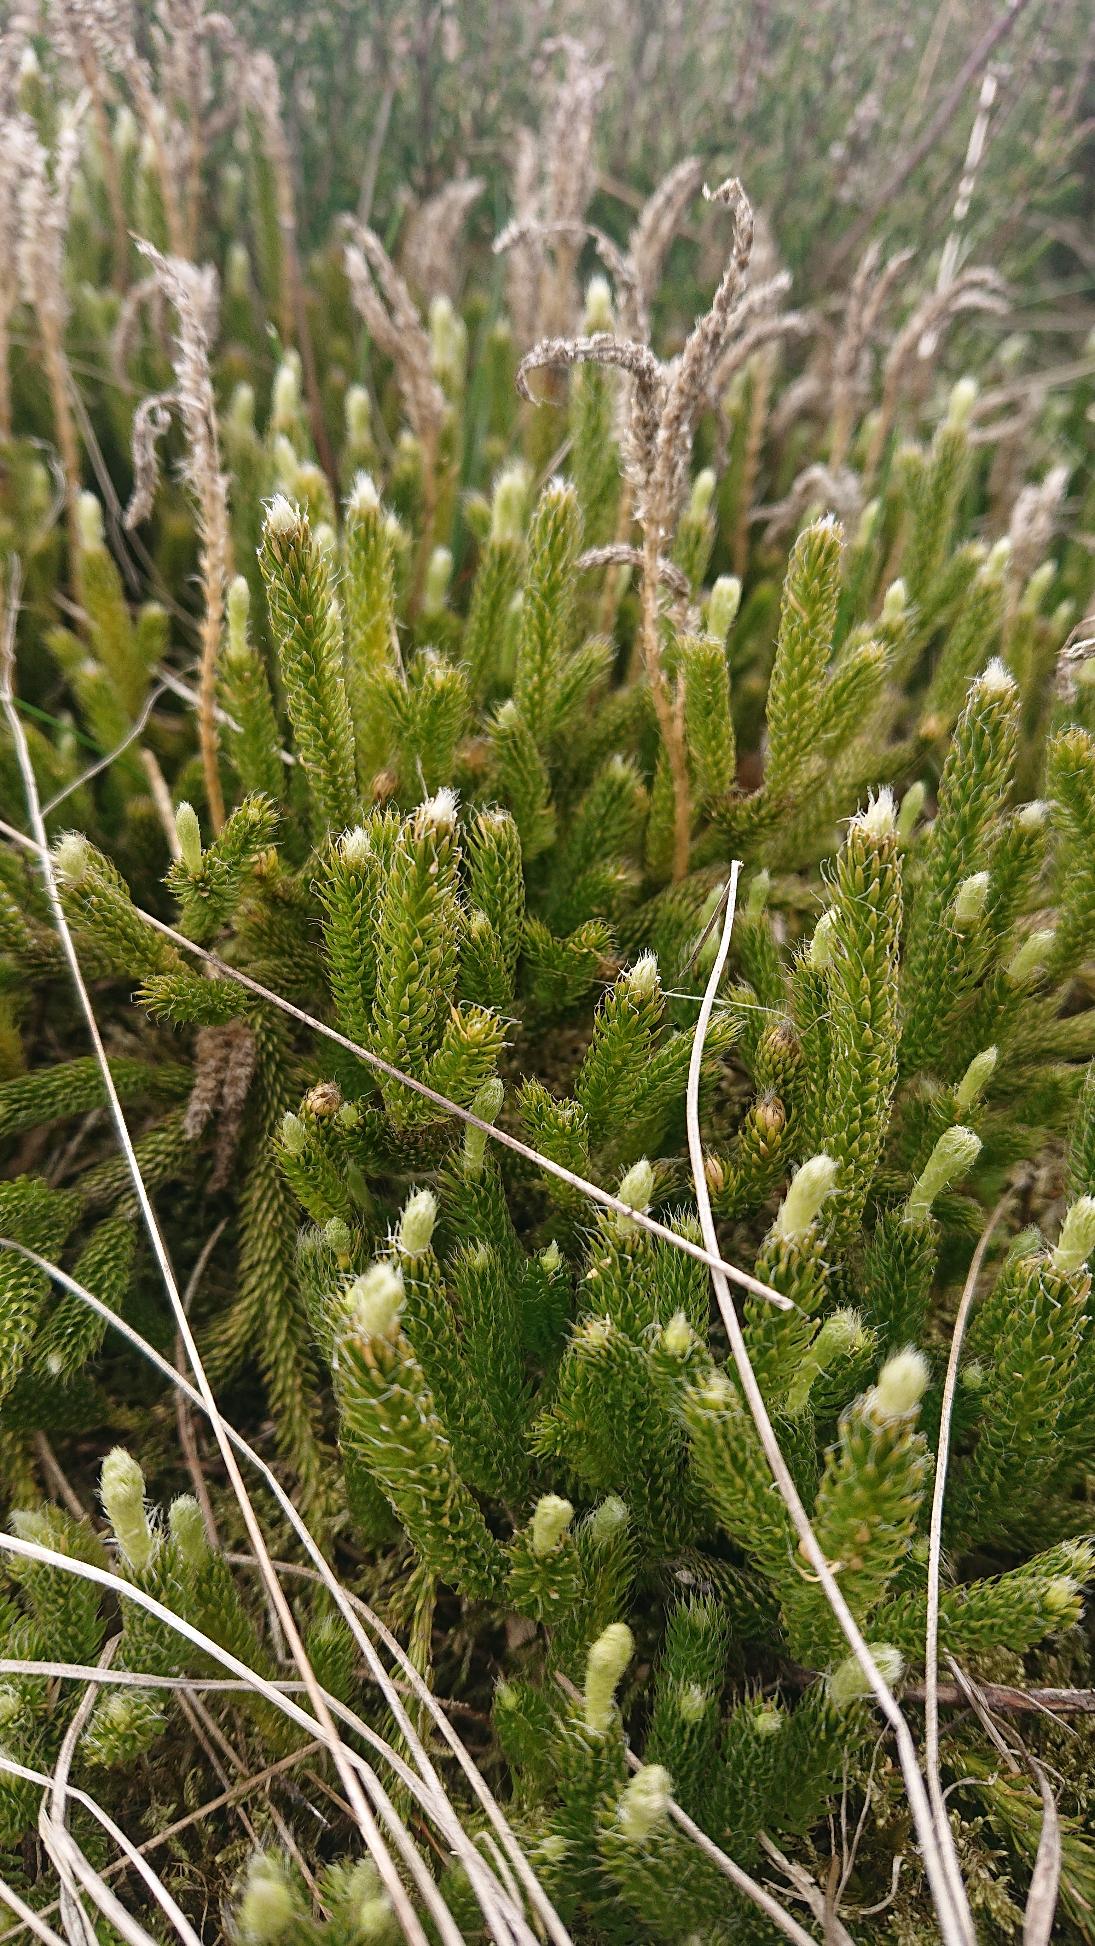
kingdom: Plantae
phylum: Tracheophyta
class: Lycopodiopsida
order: Lycopodiales
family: Lycopodiaceae
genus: Lycopodium
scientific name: Lycopodium clavatum
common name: Almindelig ulvefod
